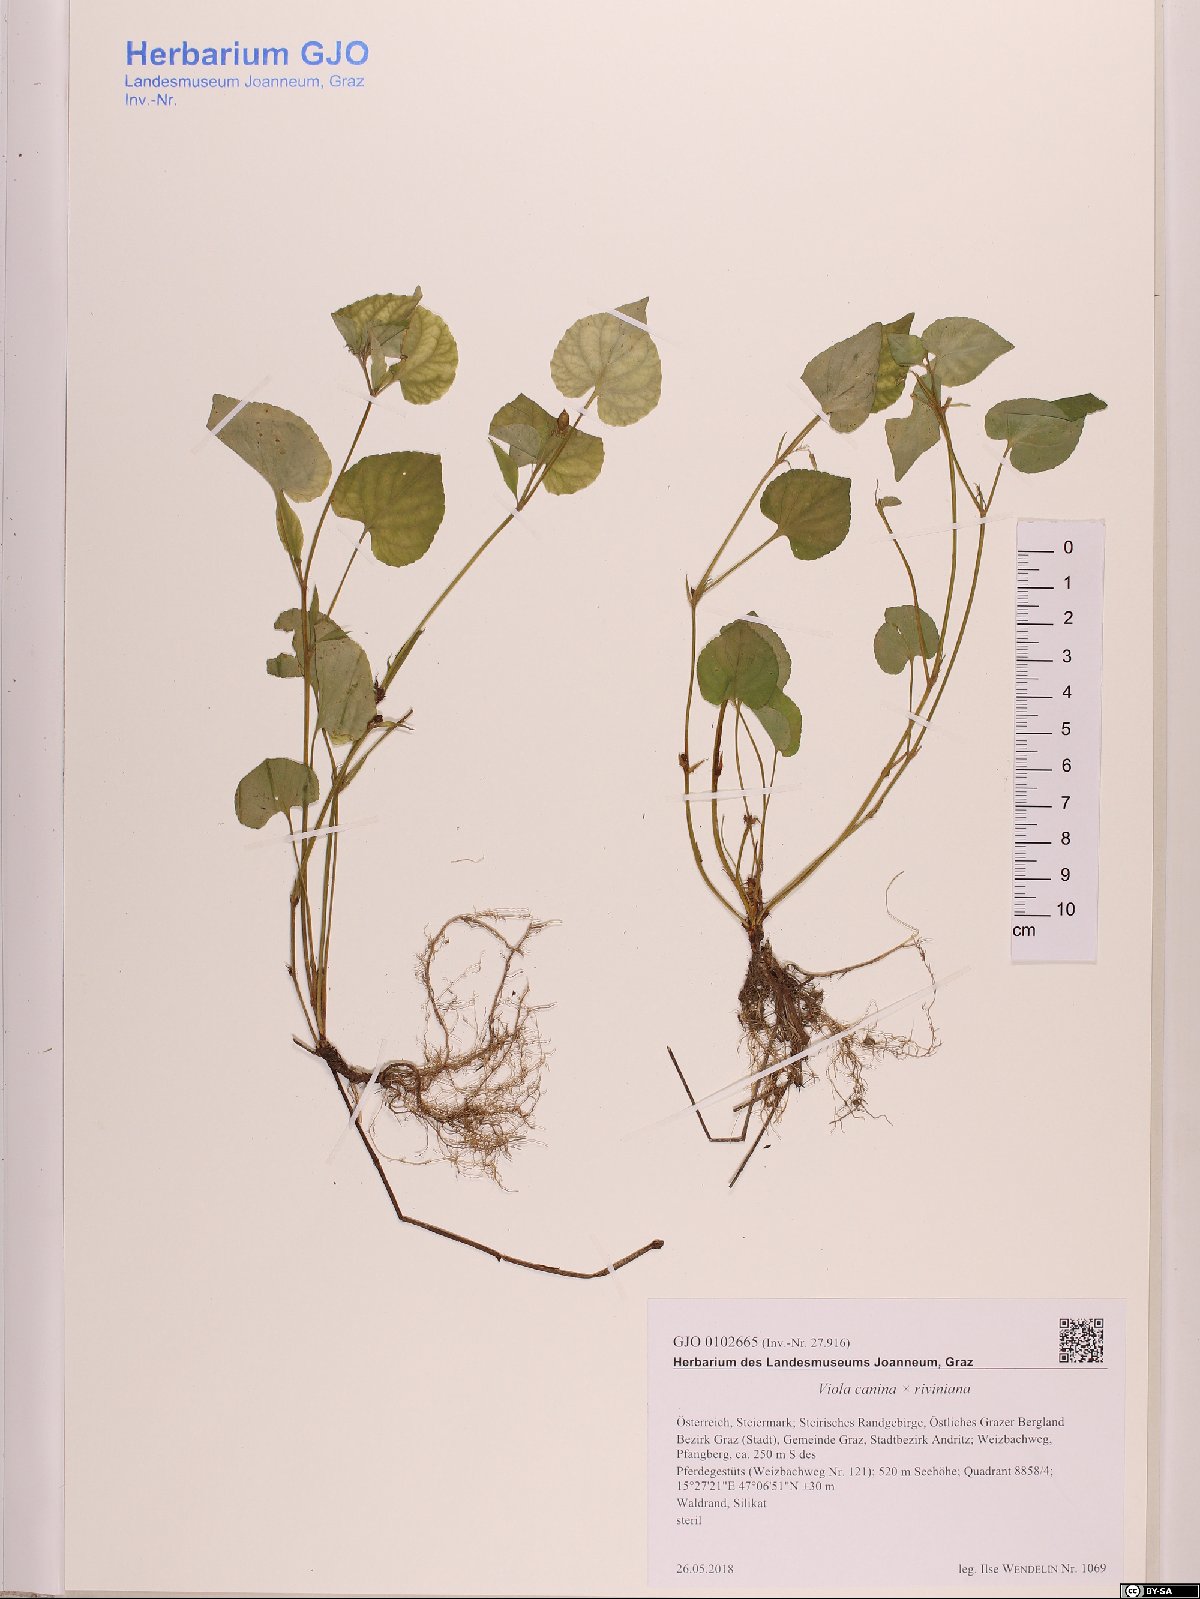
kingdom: Plantae
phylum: Tracheophyta
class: Magnoliopsida
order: Malpighiales
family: Violaceae
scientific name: Violaceae
